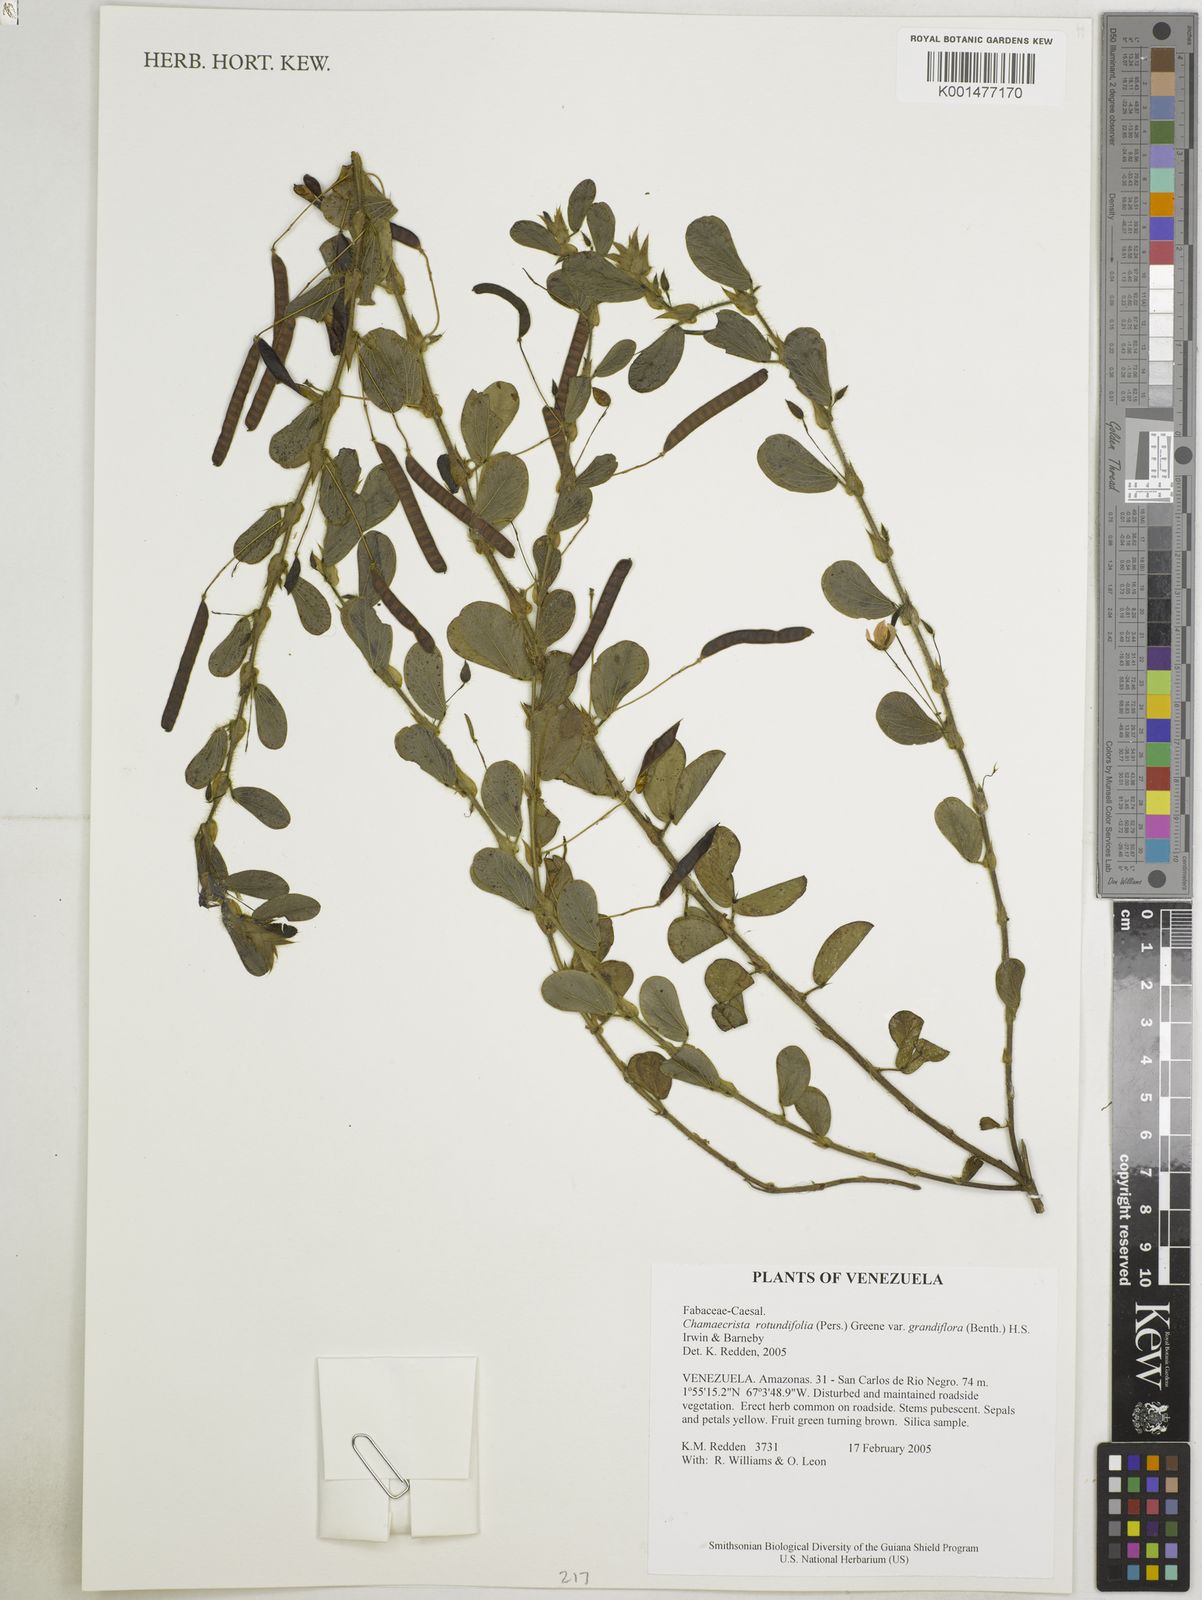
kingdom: Plantae
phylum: Tracheophyta
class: Magnoliopsida
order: Fabales
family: Fabaceae
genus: Chamaecrista
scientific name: Chamaecrista rotundifolia
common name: Round-leaf cassia
